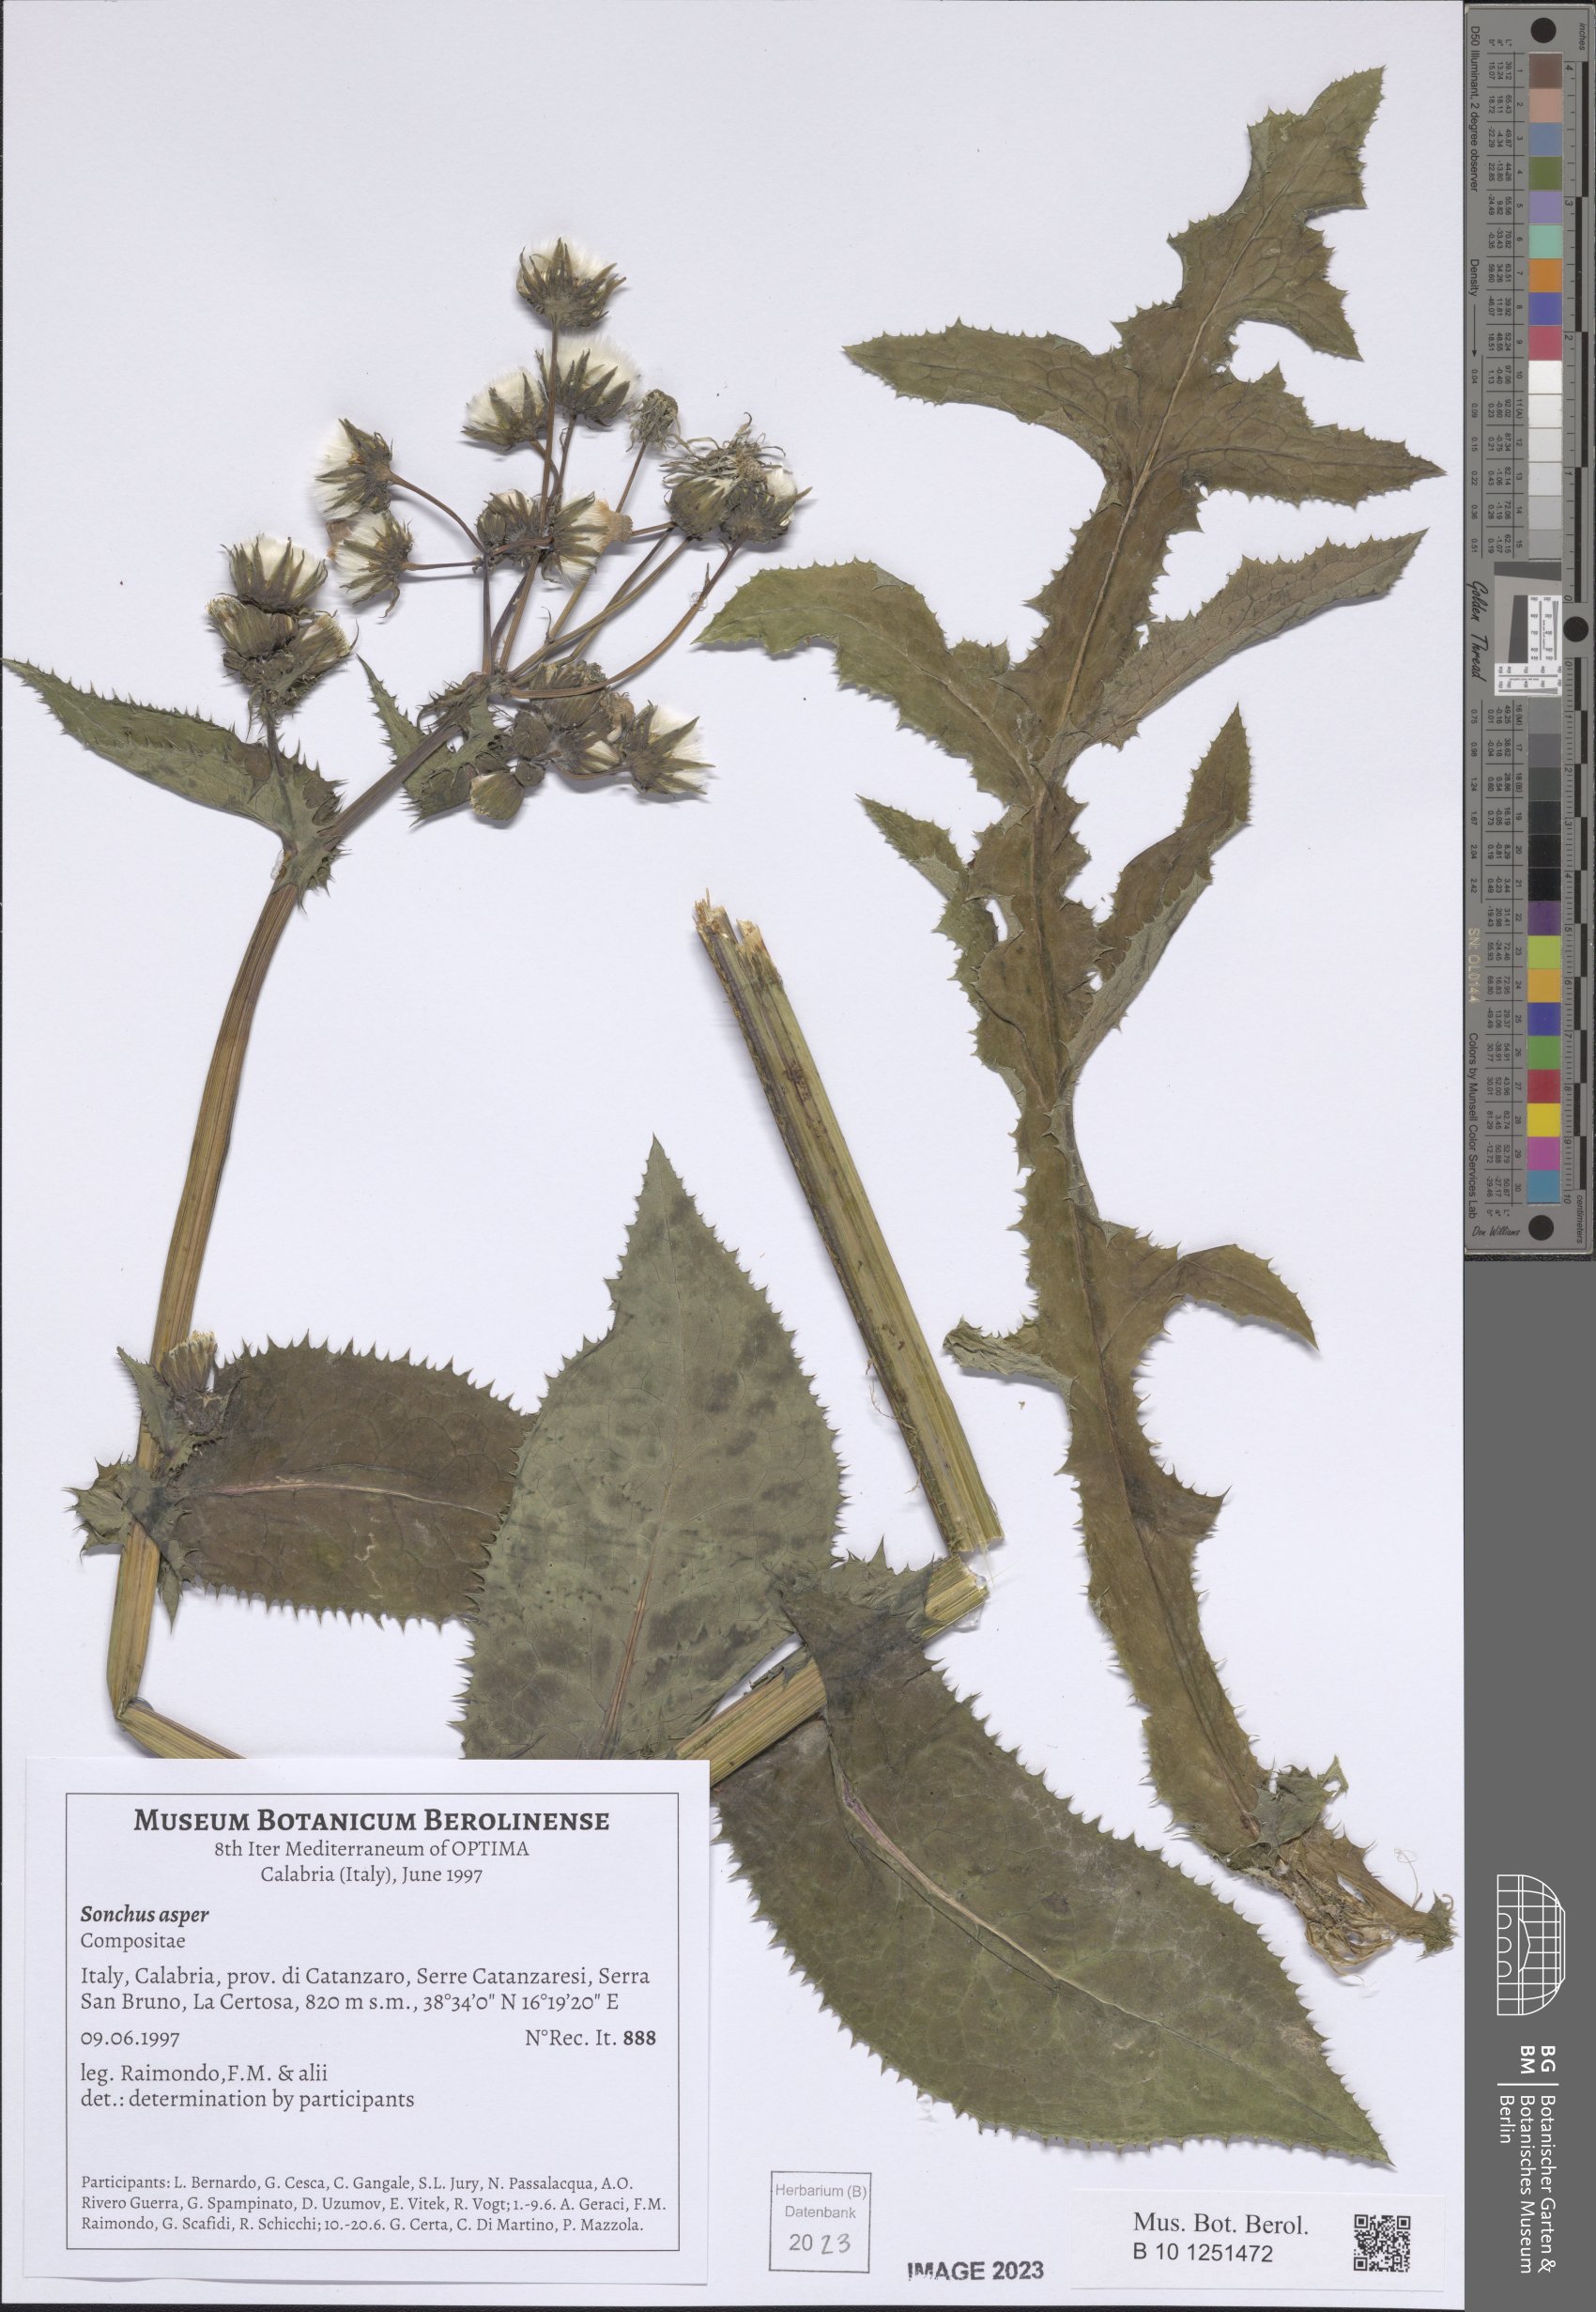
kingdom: Plantae
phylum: Tracheophyta
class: Magnoliopsida
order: Asterales
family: Asteraceae
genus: Sonchus
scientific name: Sonchus asper
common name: Prickly sow-thistle
